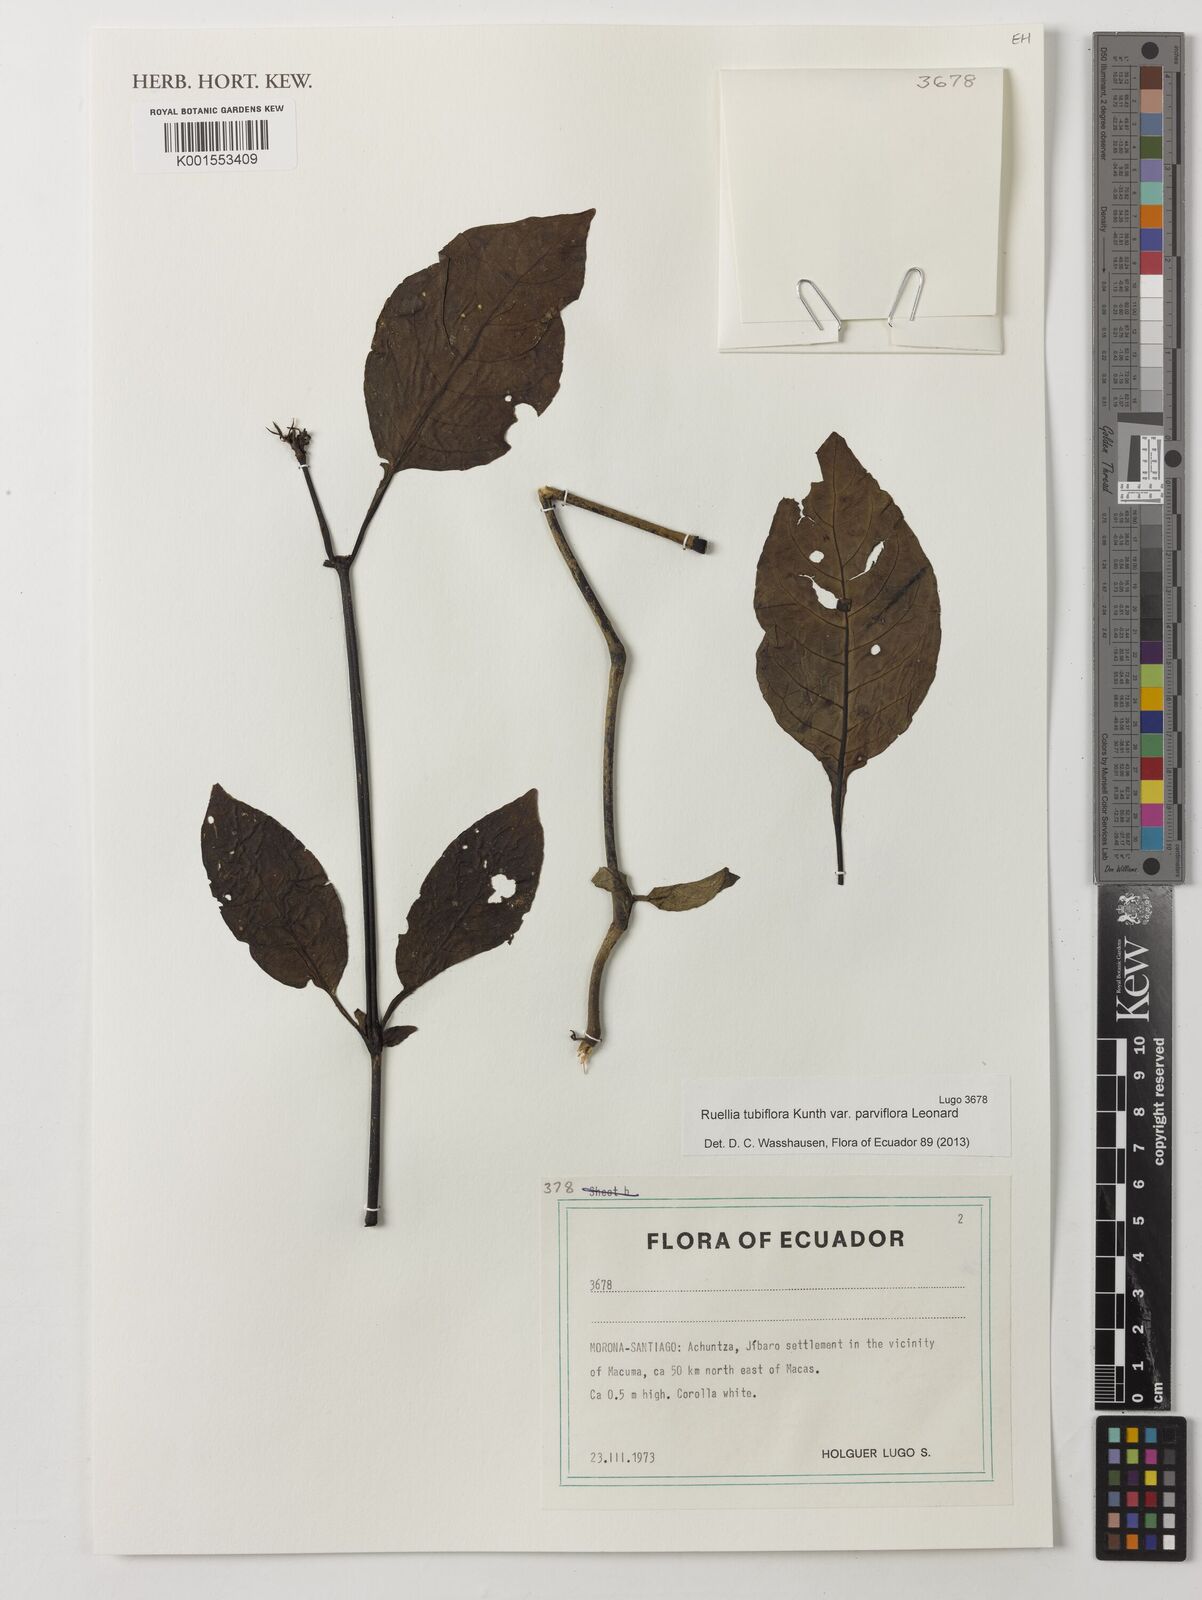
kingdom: Plantae
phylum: Tracheophyta
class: Magnoliopsida
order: Lamiales
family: Acanthaceae
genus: Ruellia
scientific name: Ruellia tubiflora
